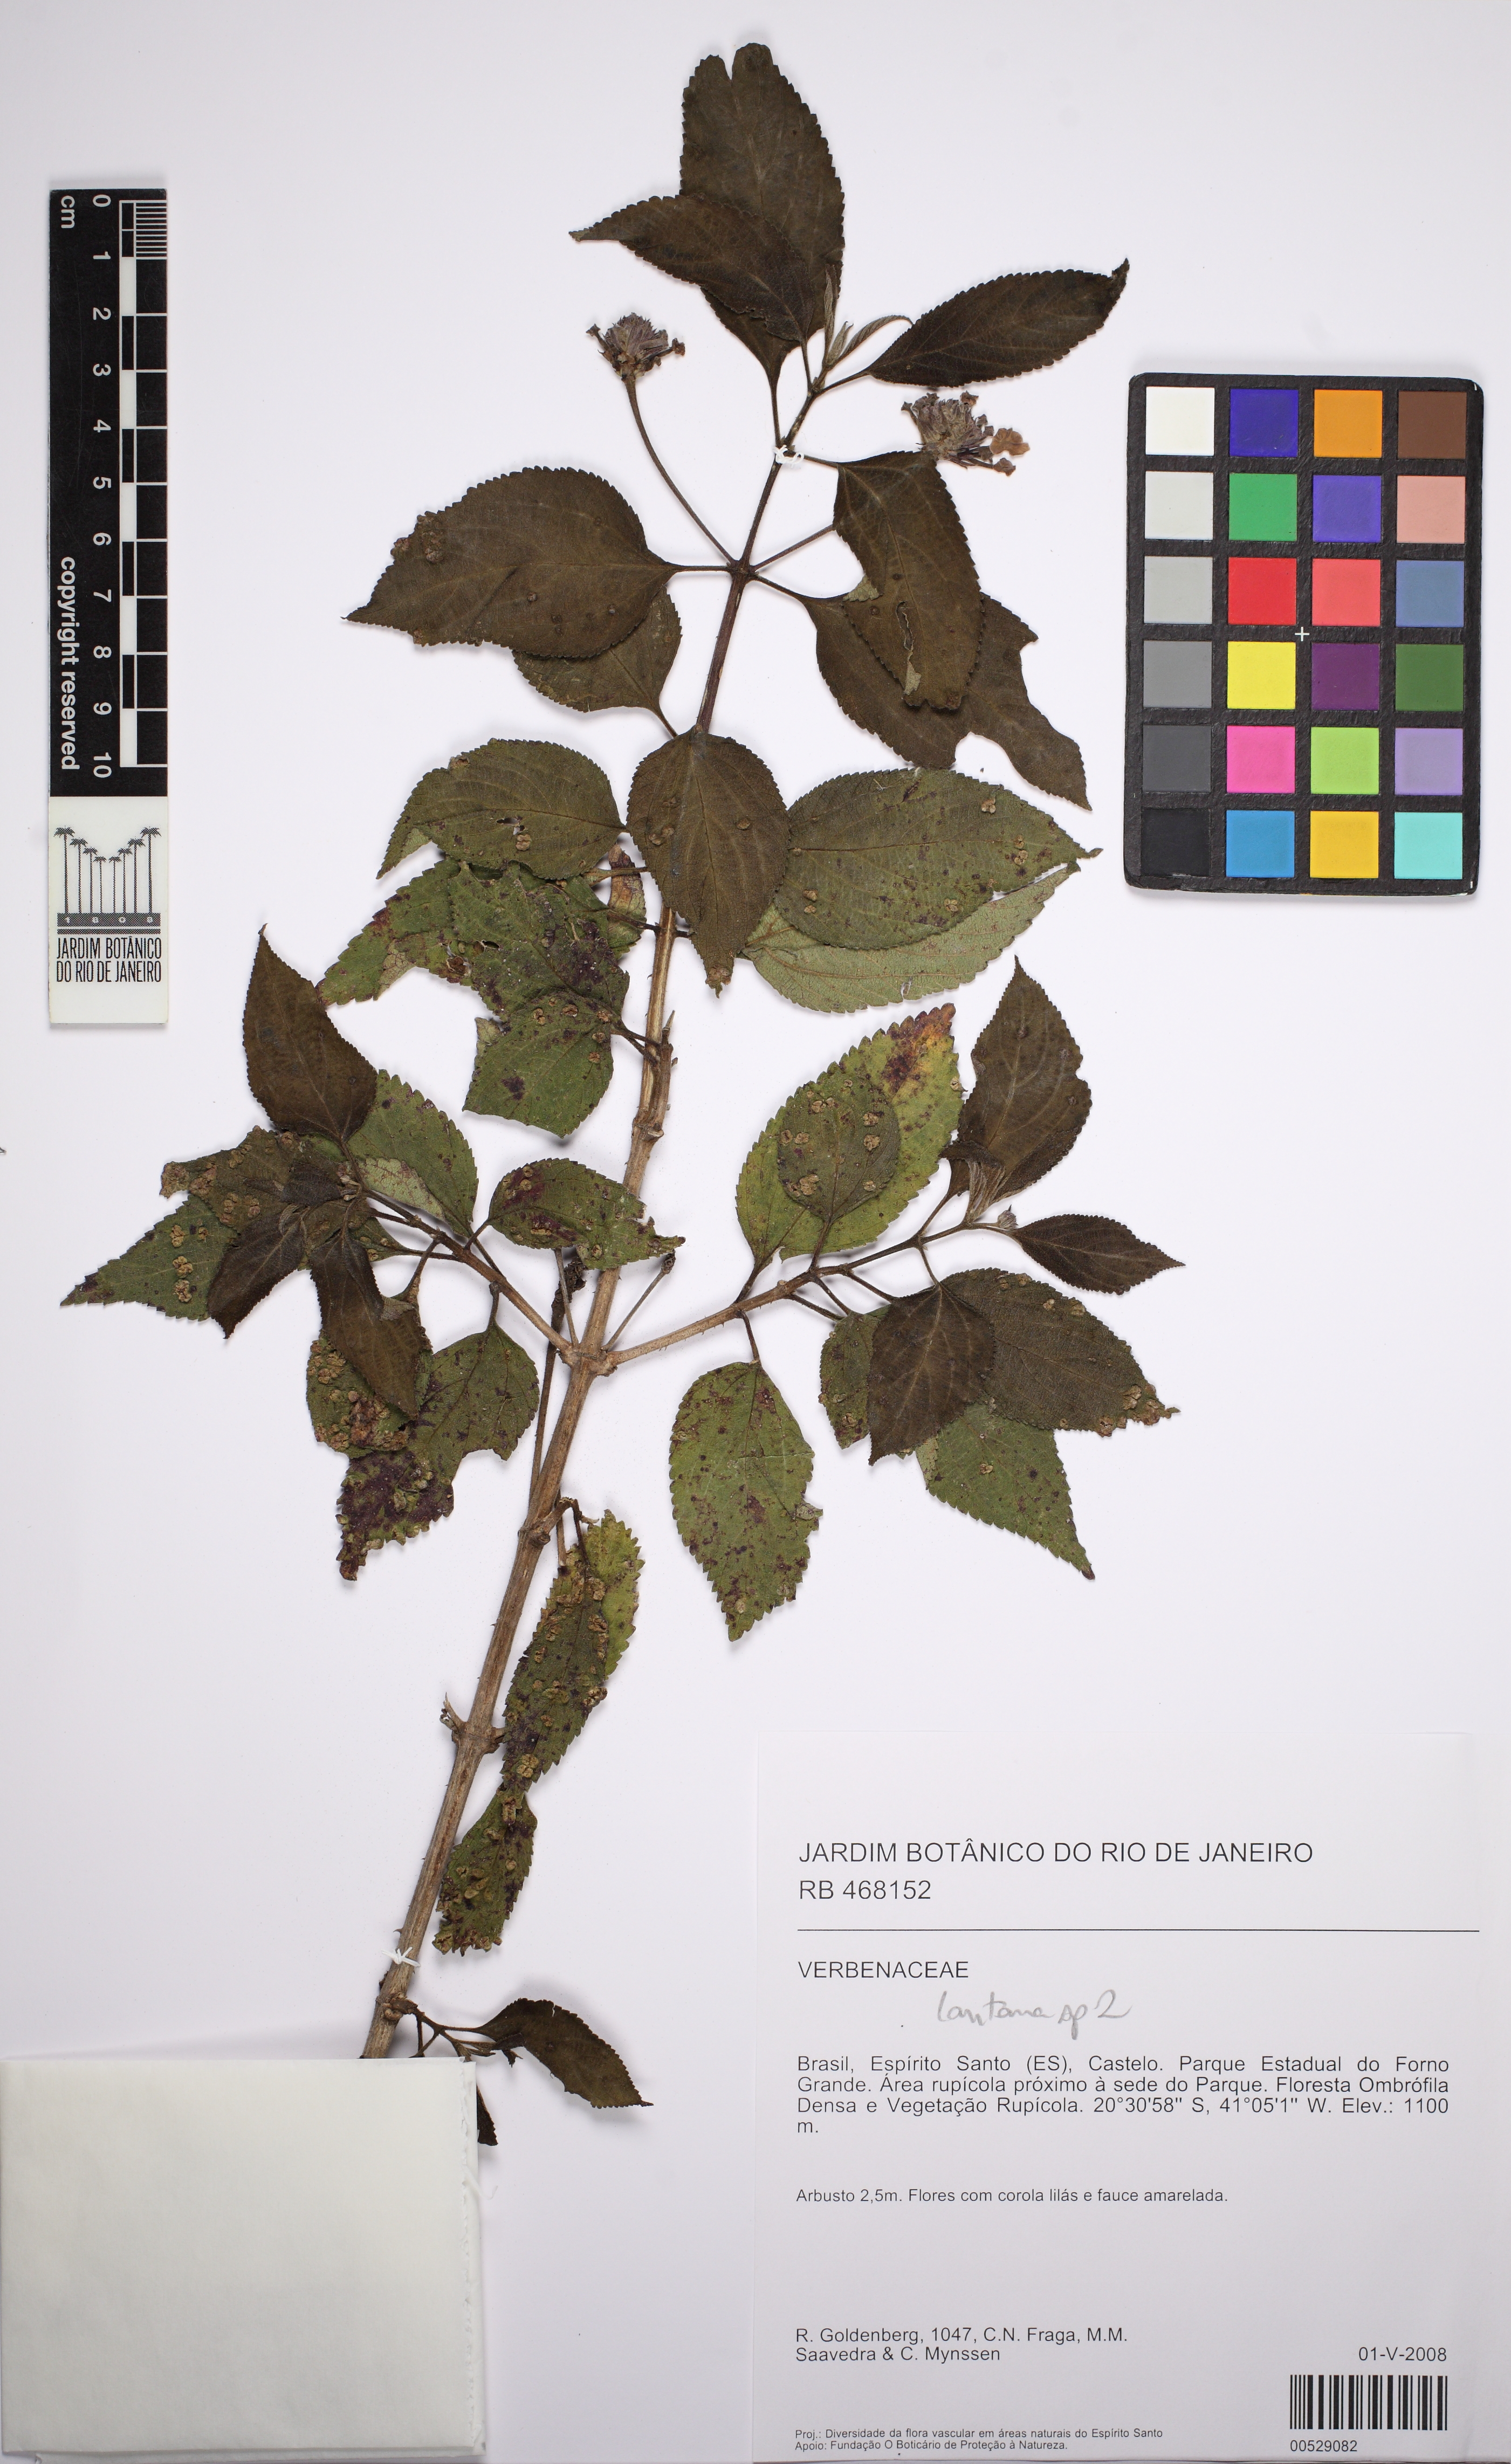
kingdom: Plantae
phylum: Tracheophyta
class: Magnoliopsida
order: Lamiales
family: Verbenaceae
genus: Lantana
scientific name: Lantana
